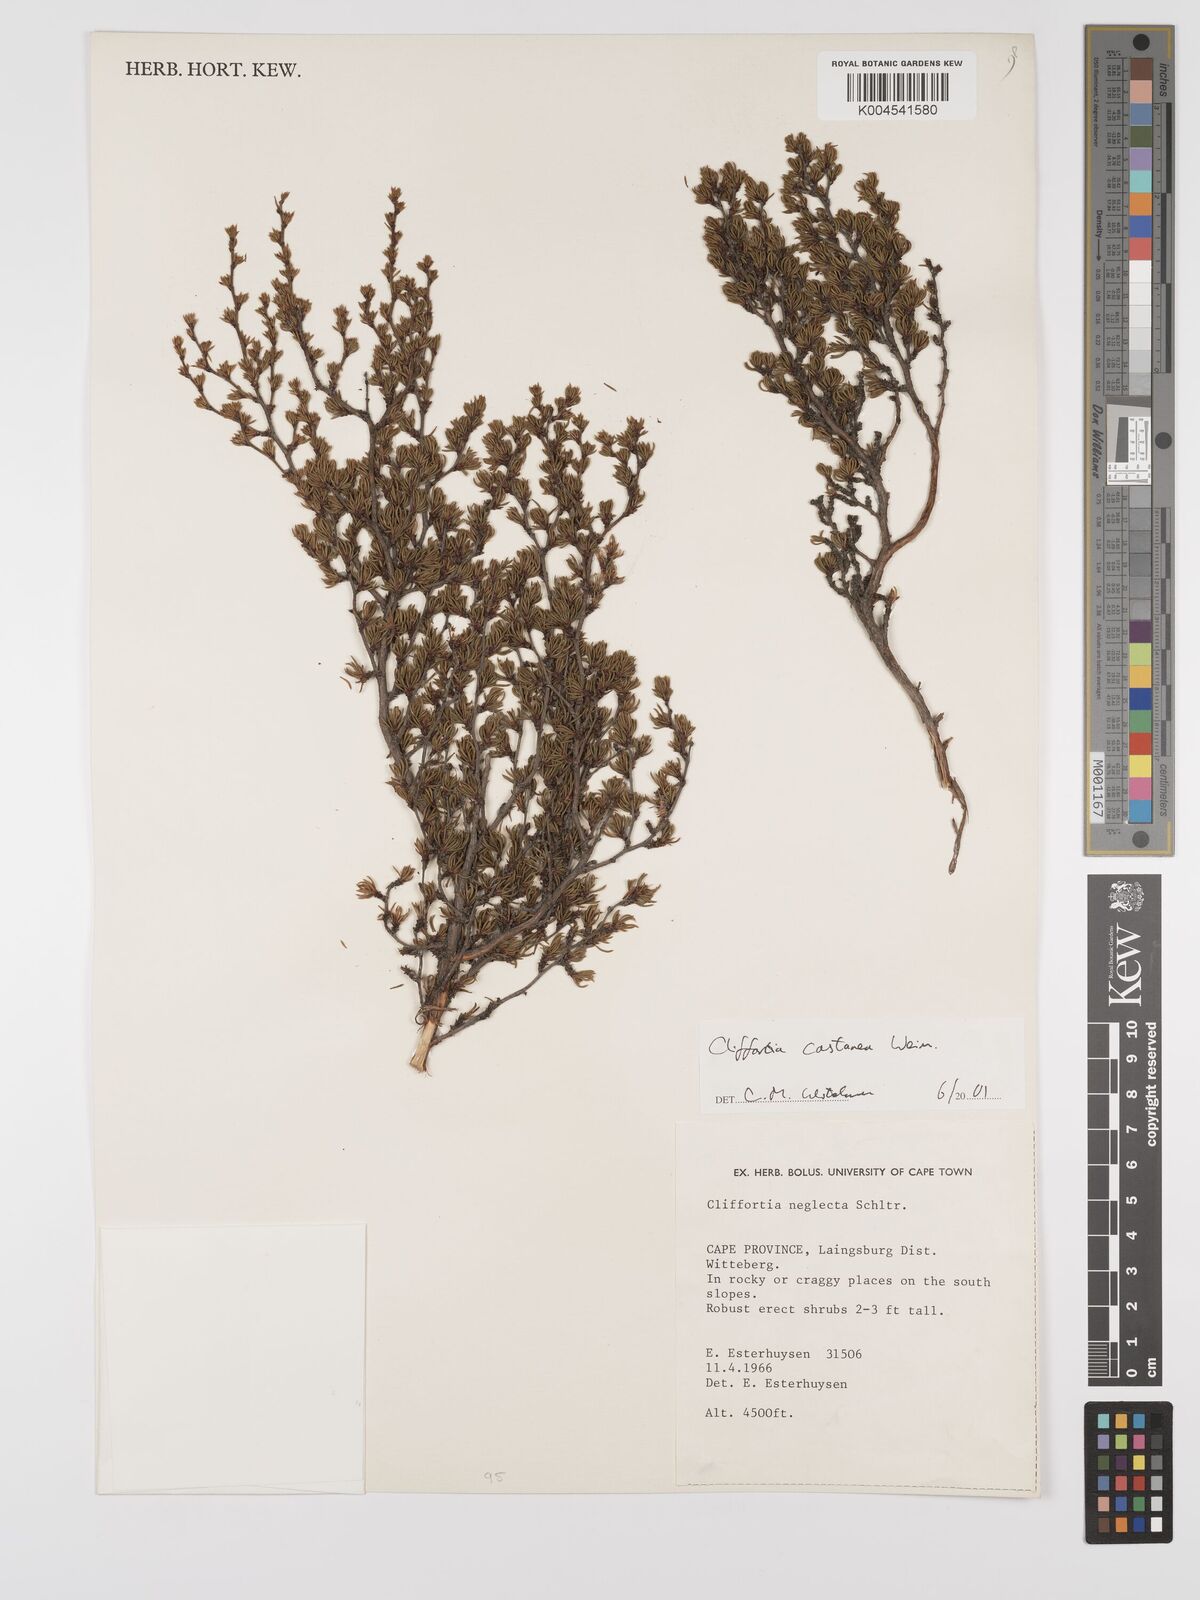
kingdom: Plantae
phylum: Tracheophyta
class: Magnoliopsida
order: Rosales
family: Rosaceae
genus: Cliffortia
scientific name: Cliffortia castanea
